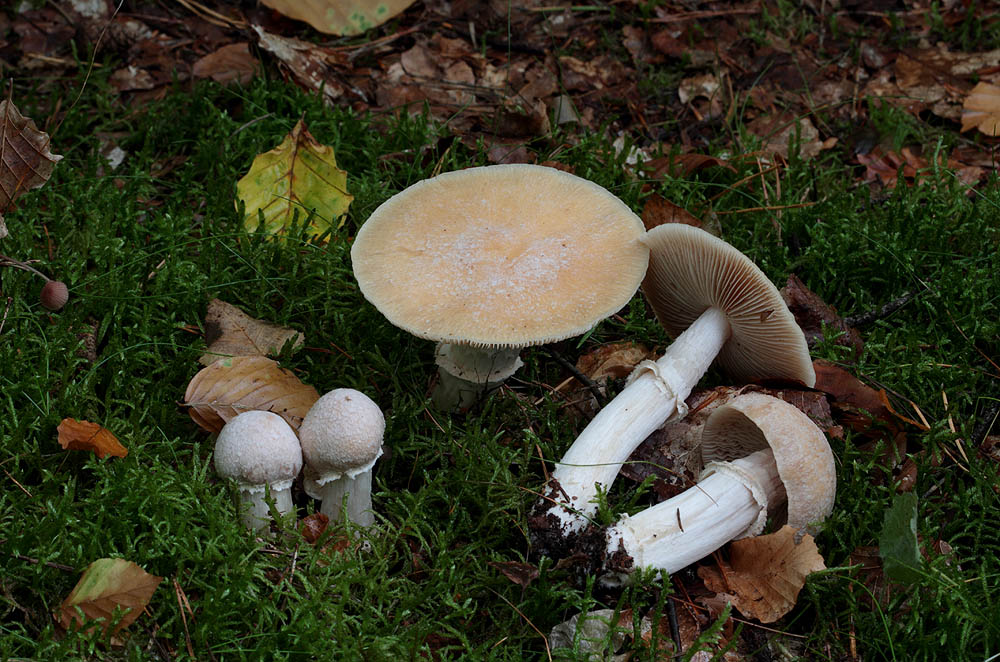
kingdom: Fungi
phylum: Basidiomycota
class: Agaricomycetes
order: Agaricales
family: Cortinariaceae
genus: Cortinarius
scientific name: Cortinarius caperatus
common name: klidhat
